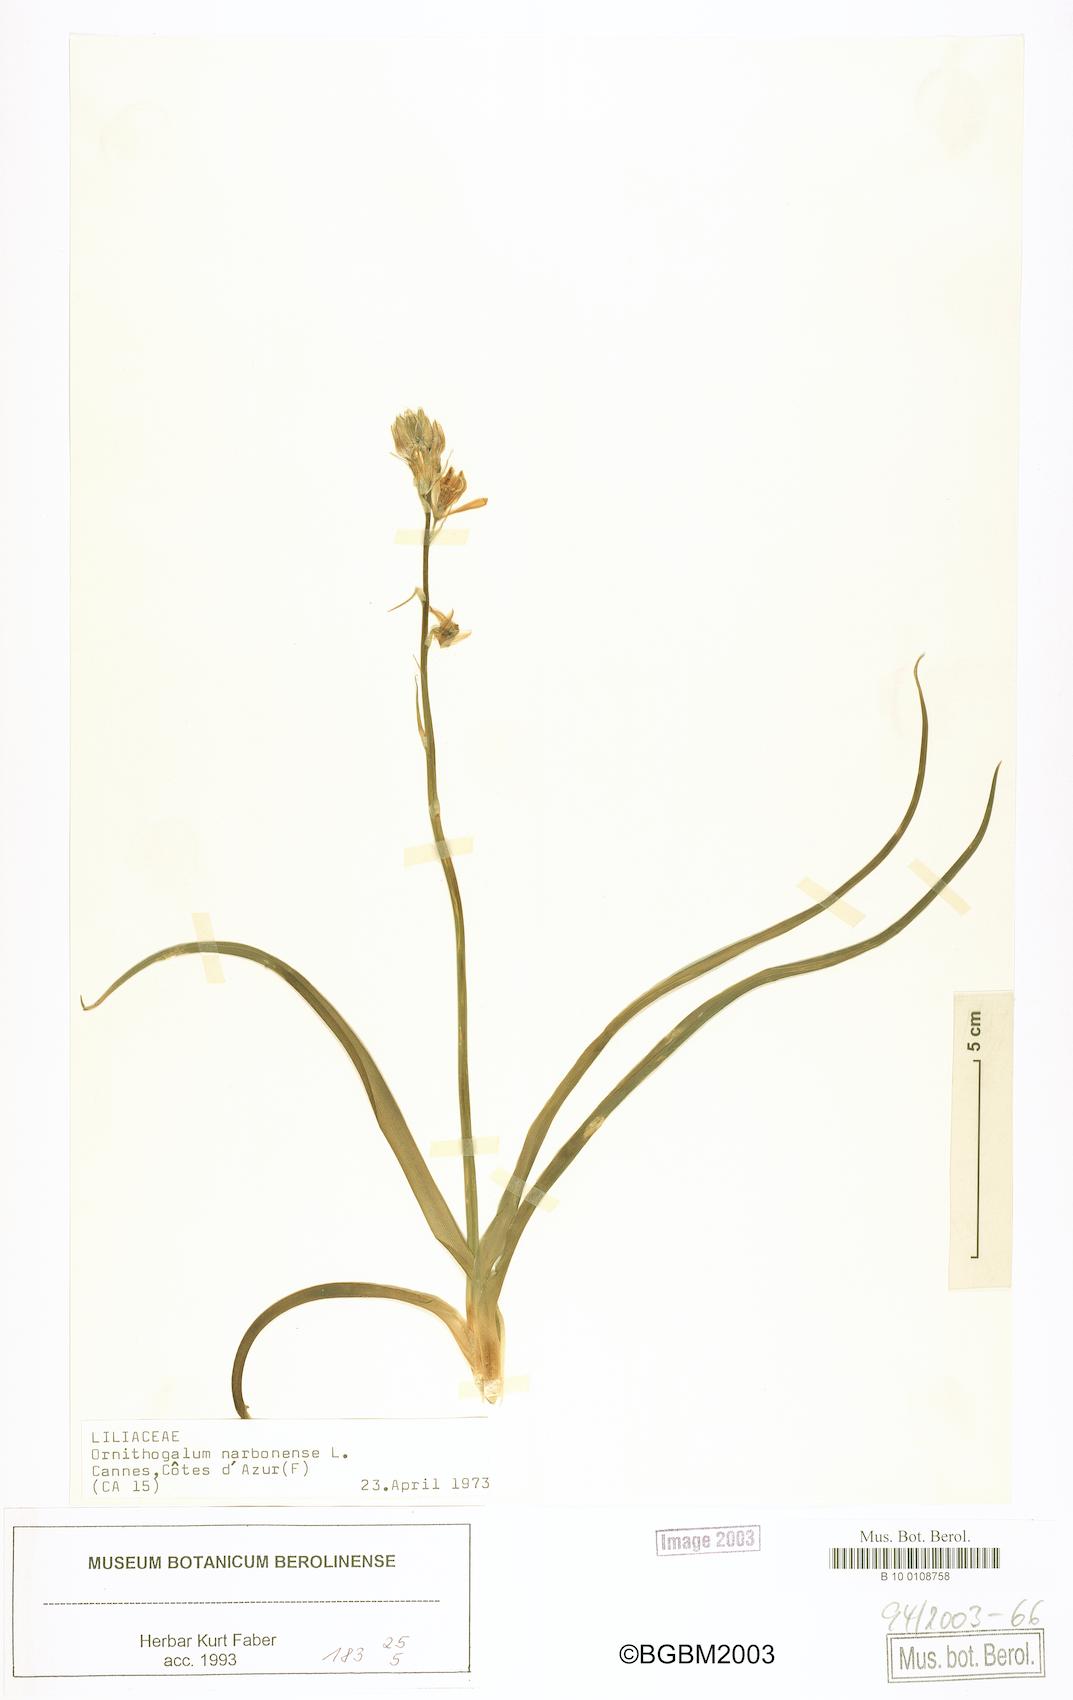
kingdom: Plantae
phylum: Tracheophyta
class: Liliopsida
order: Asparagales
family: Asparagaceae
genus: Ornithogalum
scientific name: Ornithogalum narbonense
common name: Bath-asparagus
